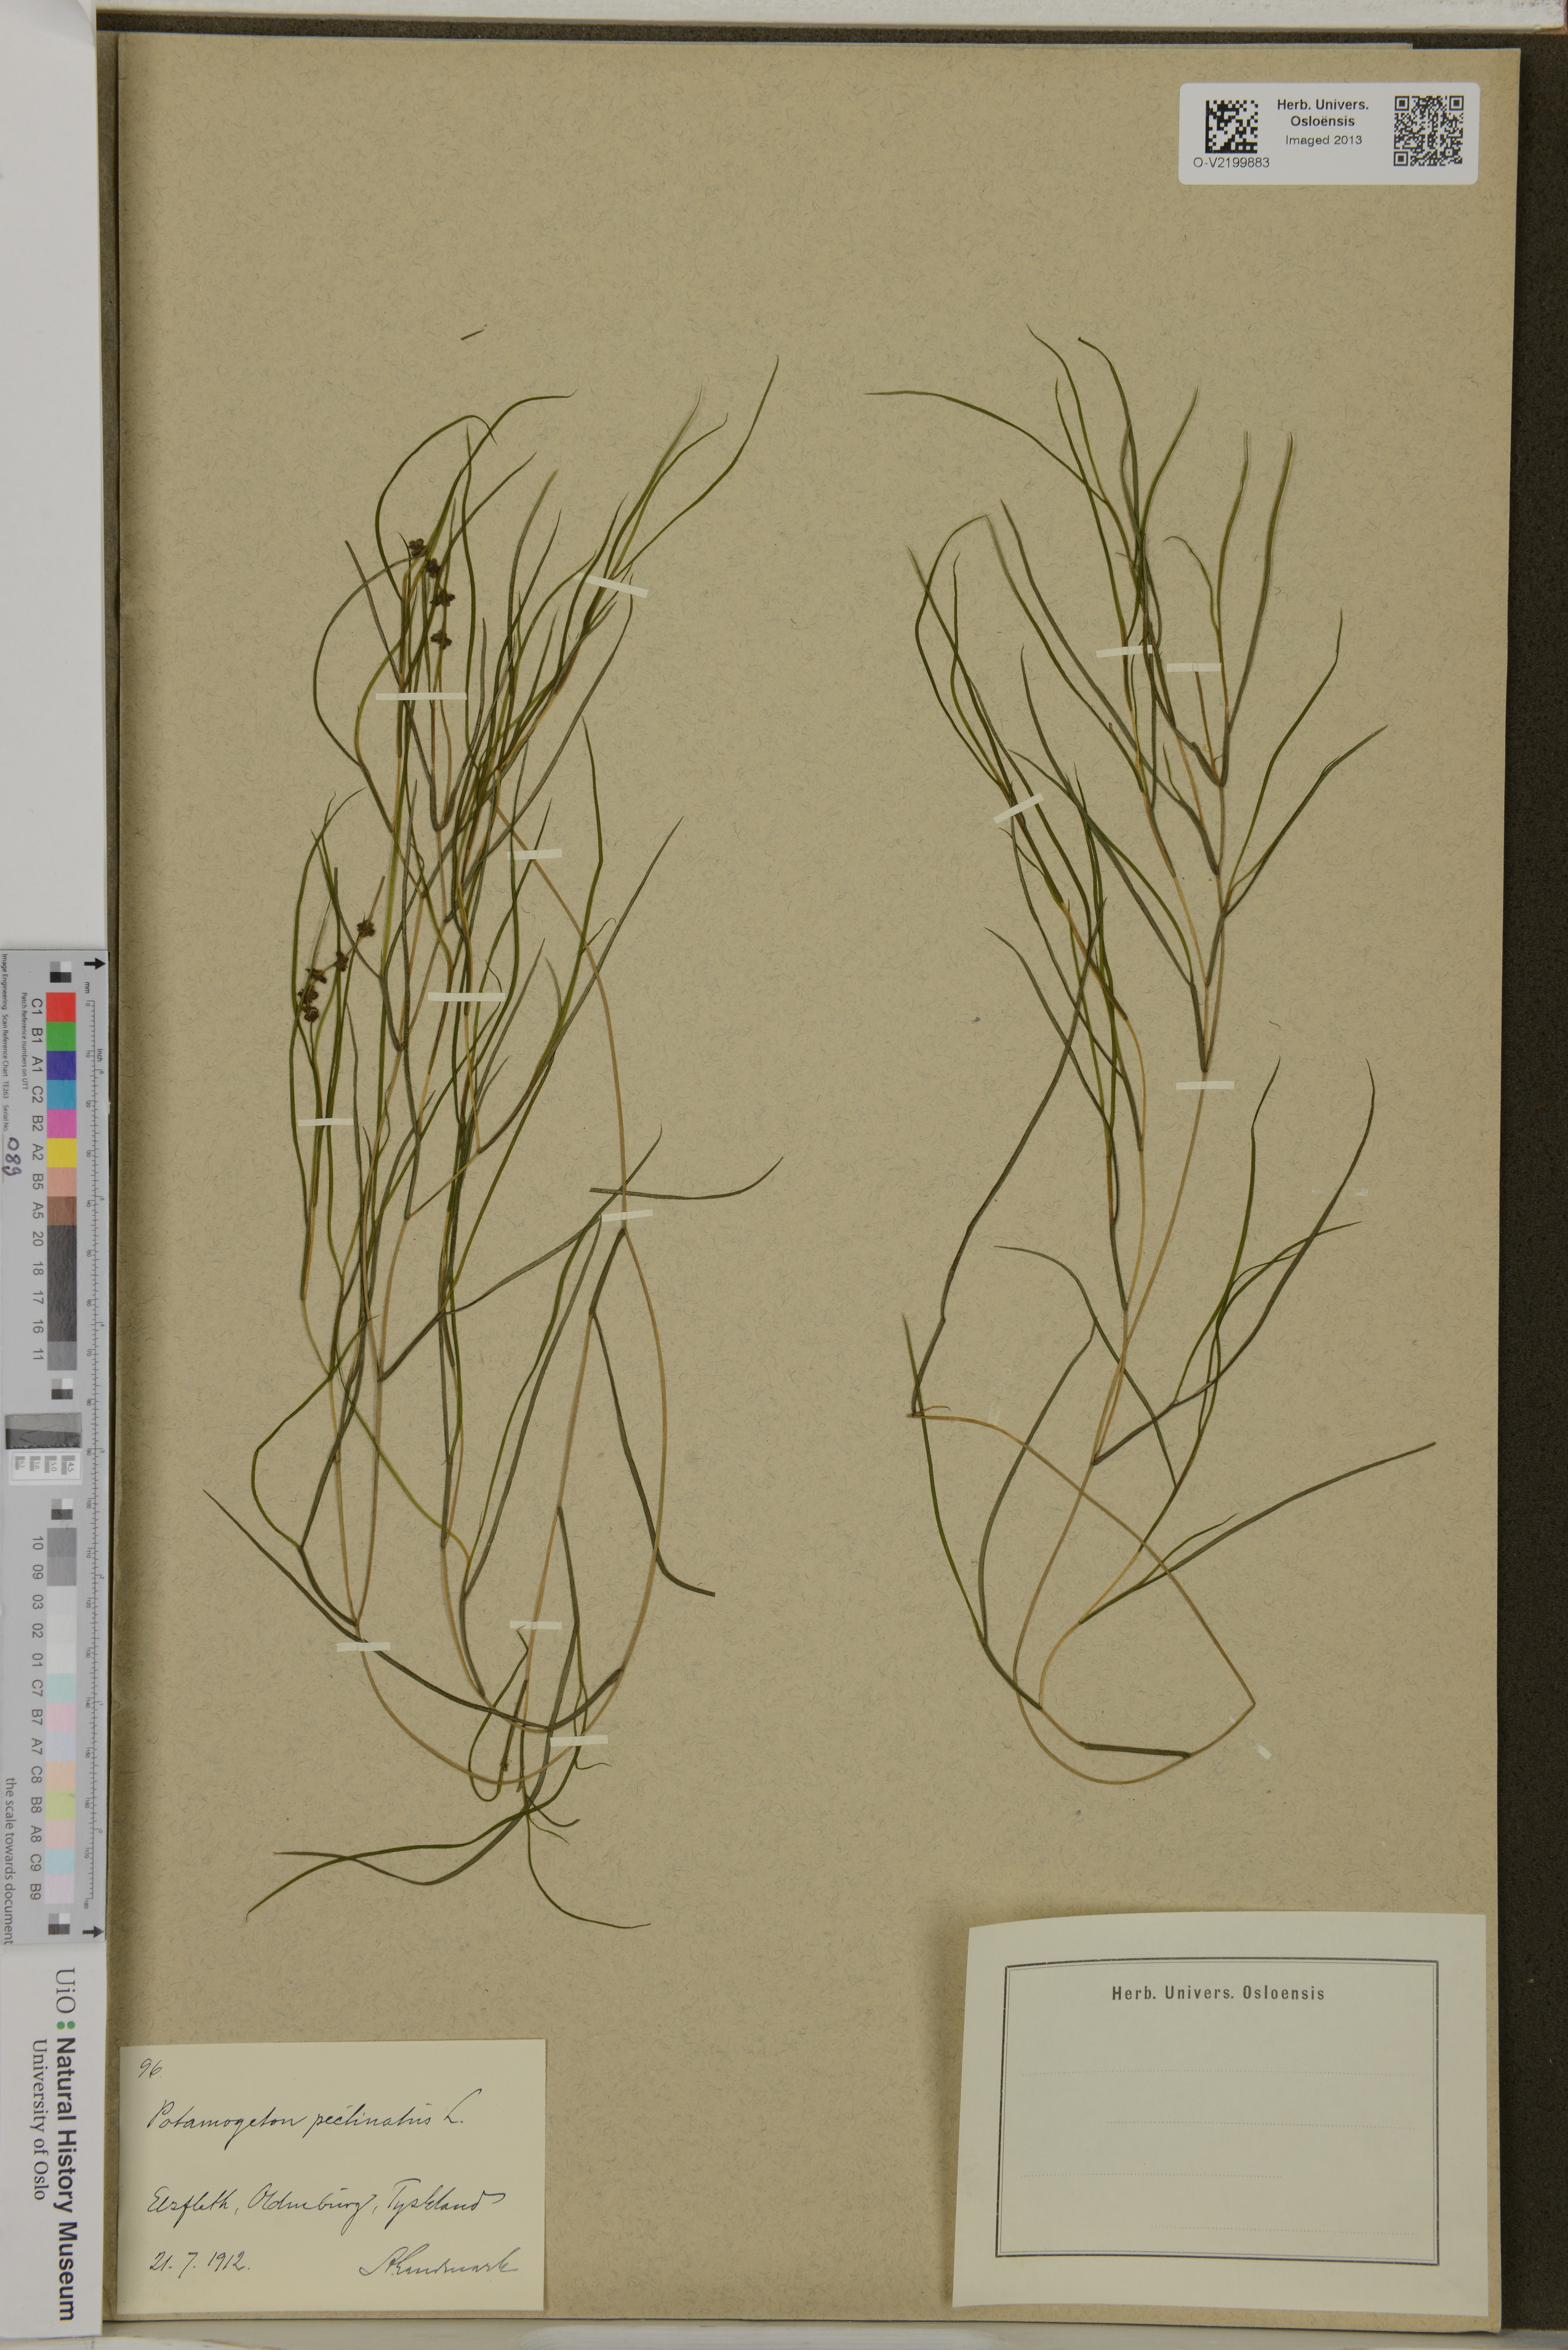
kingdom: Plantae
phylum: Tracheophyta
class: Liliopsida
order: Alismatales
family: Potamogetonaceae
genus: Stuckenia
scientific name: Stuckenia pectinata
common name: Sago pondweed
